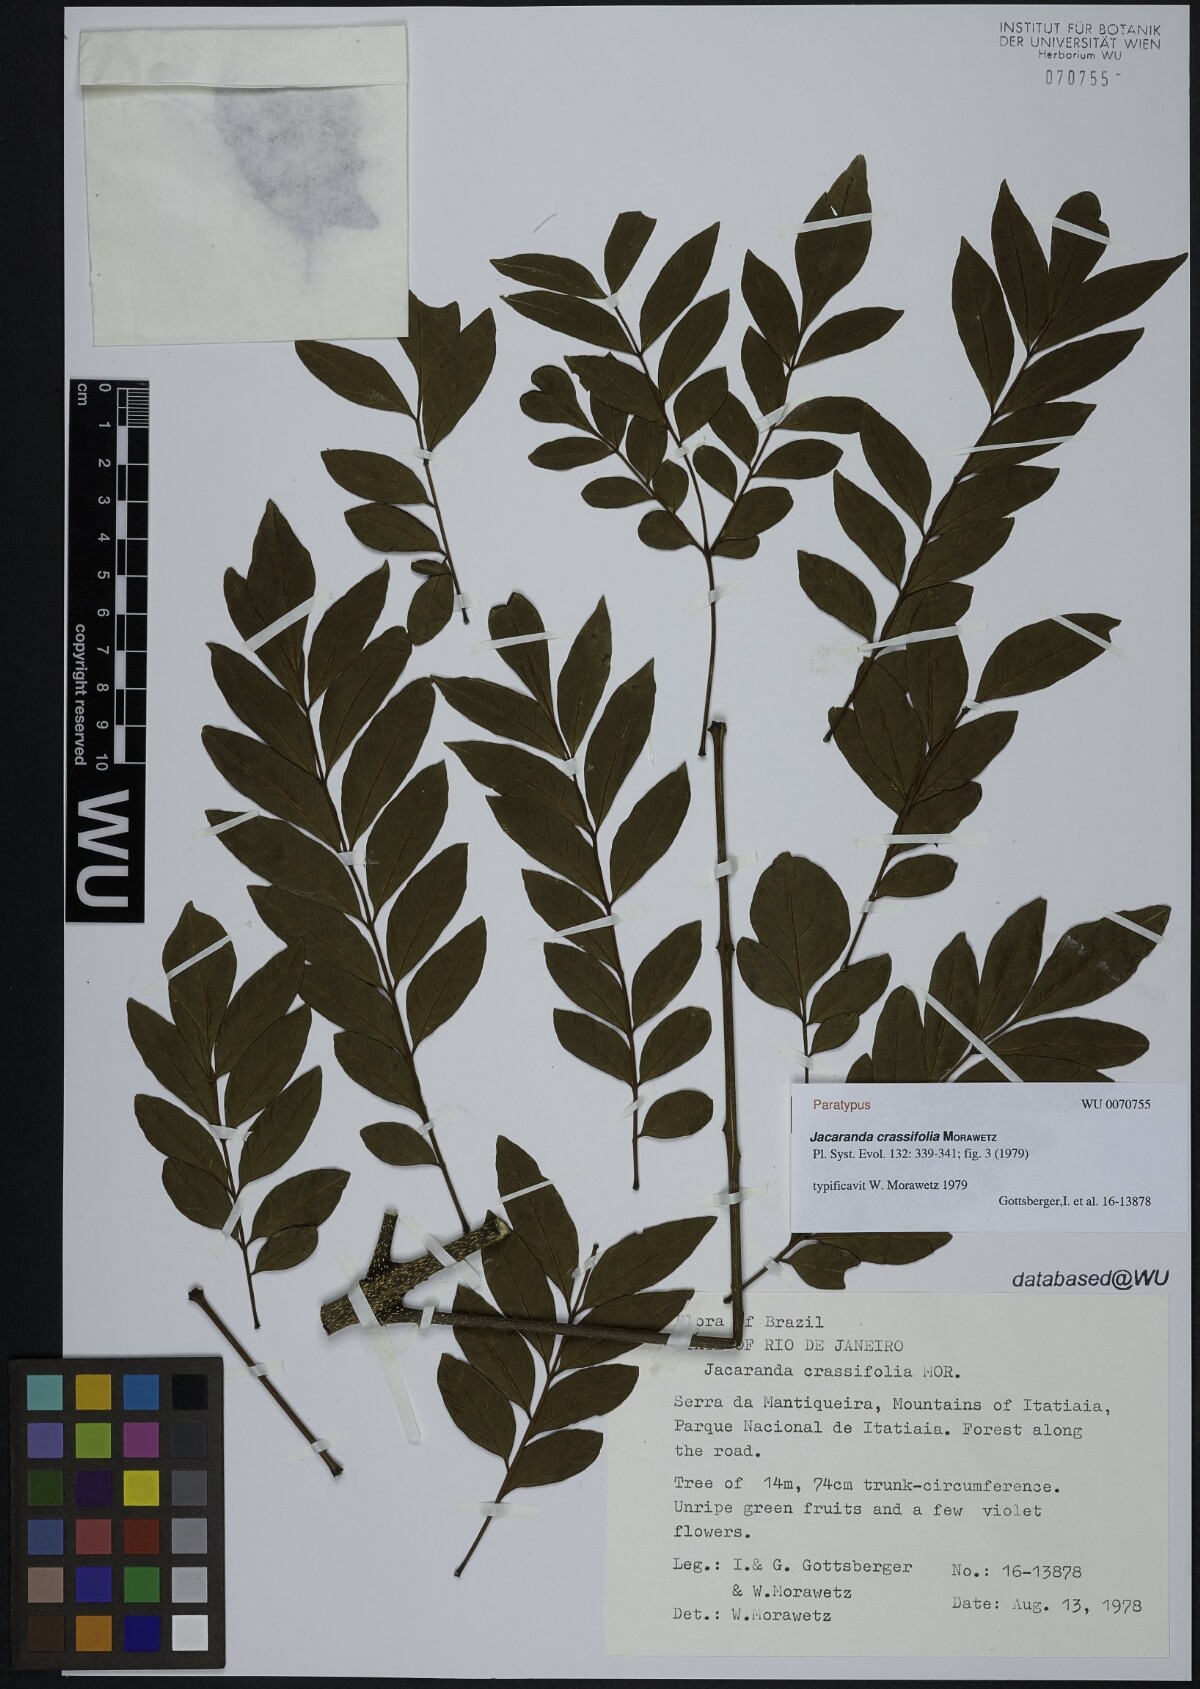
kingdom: Plantae
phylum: Tracheophyta
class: Magnoliopsida
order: Lamiales
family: Bignoniaceae
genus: Jacaranda
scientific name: Jacaranda crassifolia
